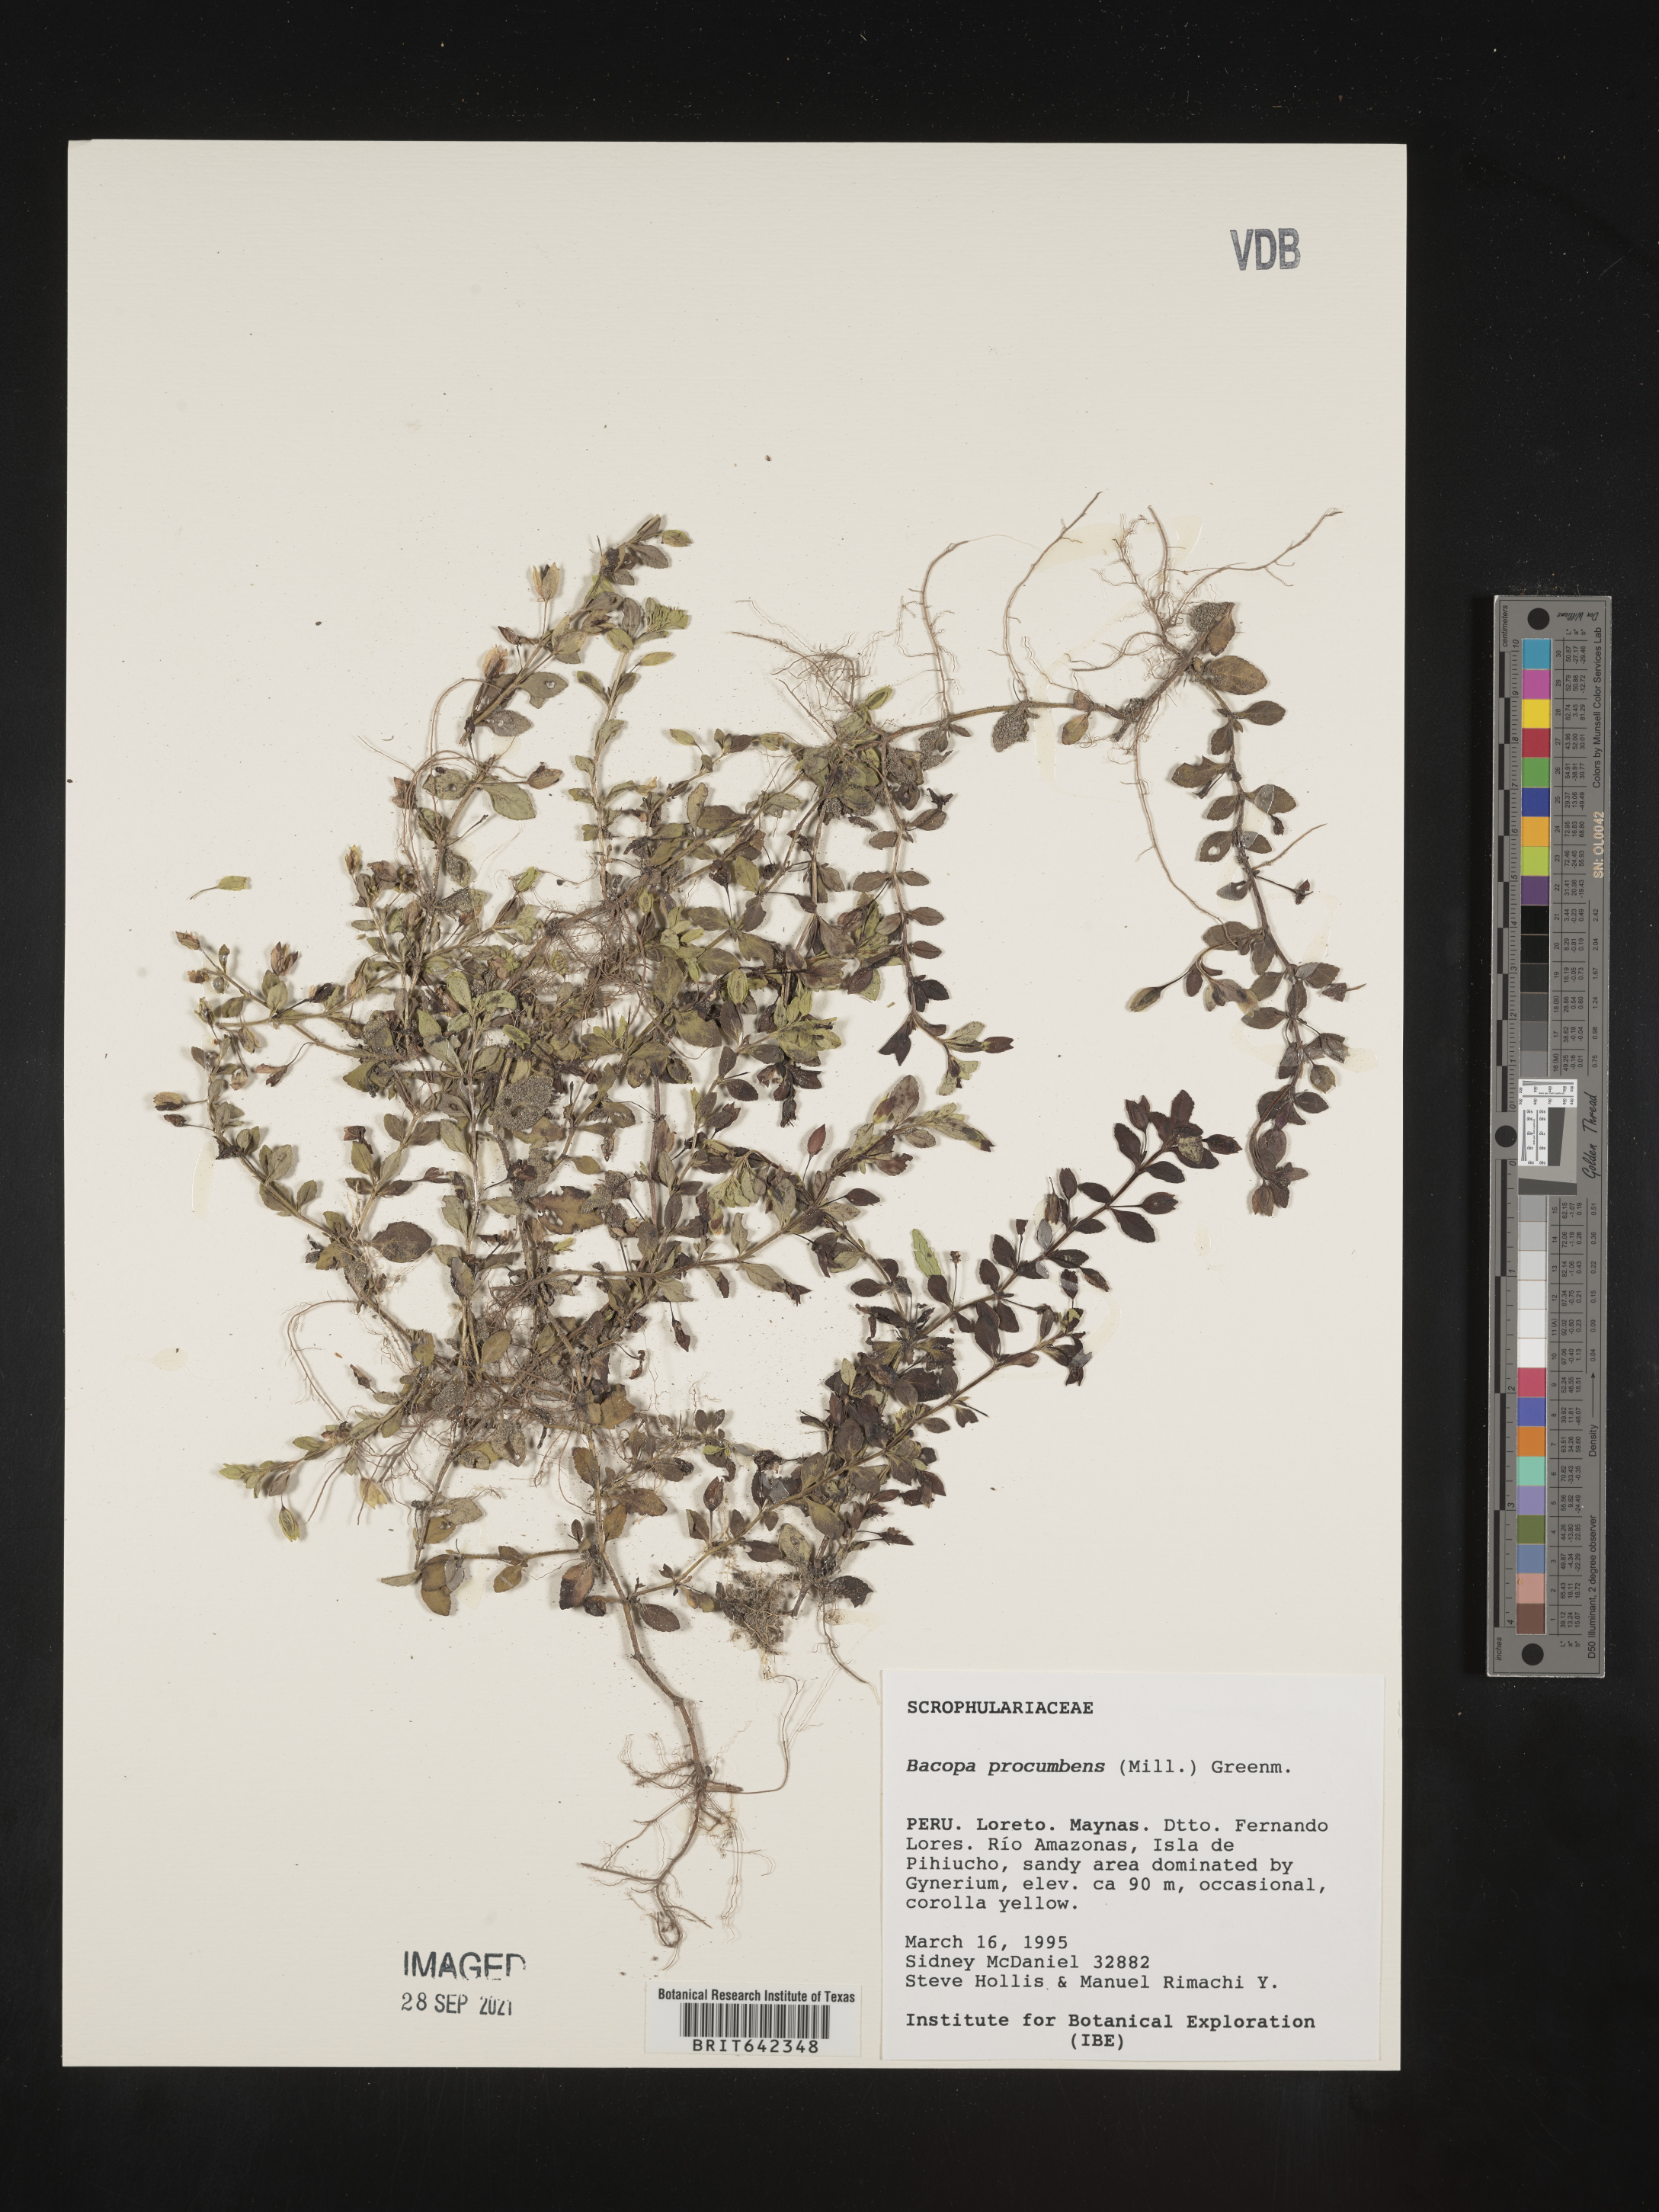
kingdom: Plantae
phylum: Tracheophyta
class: Magnoliopsida
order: Lamiales
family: Plantaginaceae
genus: Bacopa
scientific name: Bacopa
